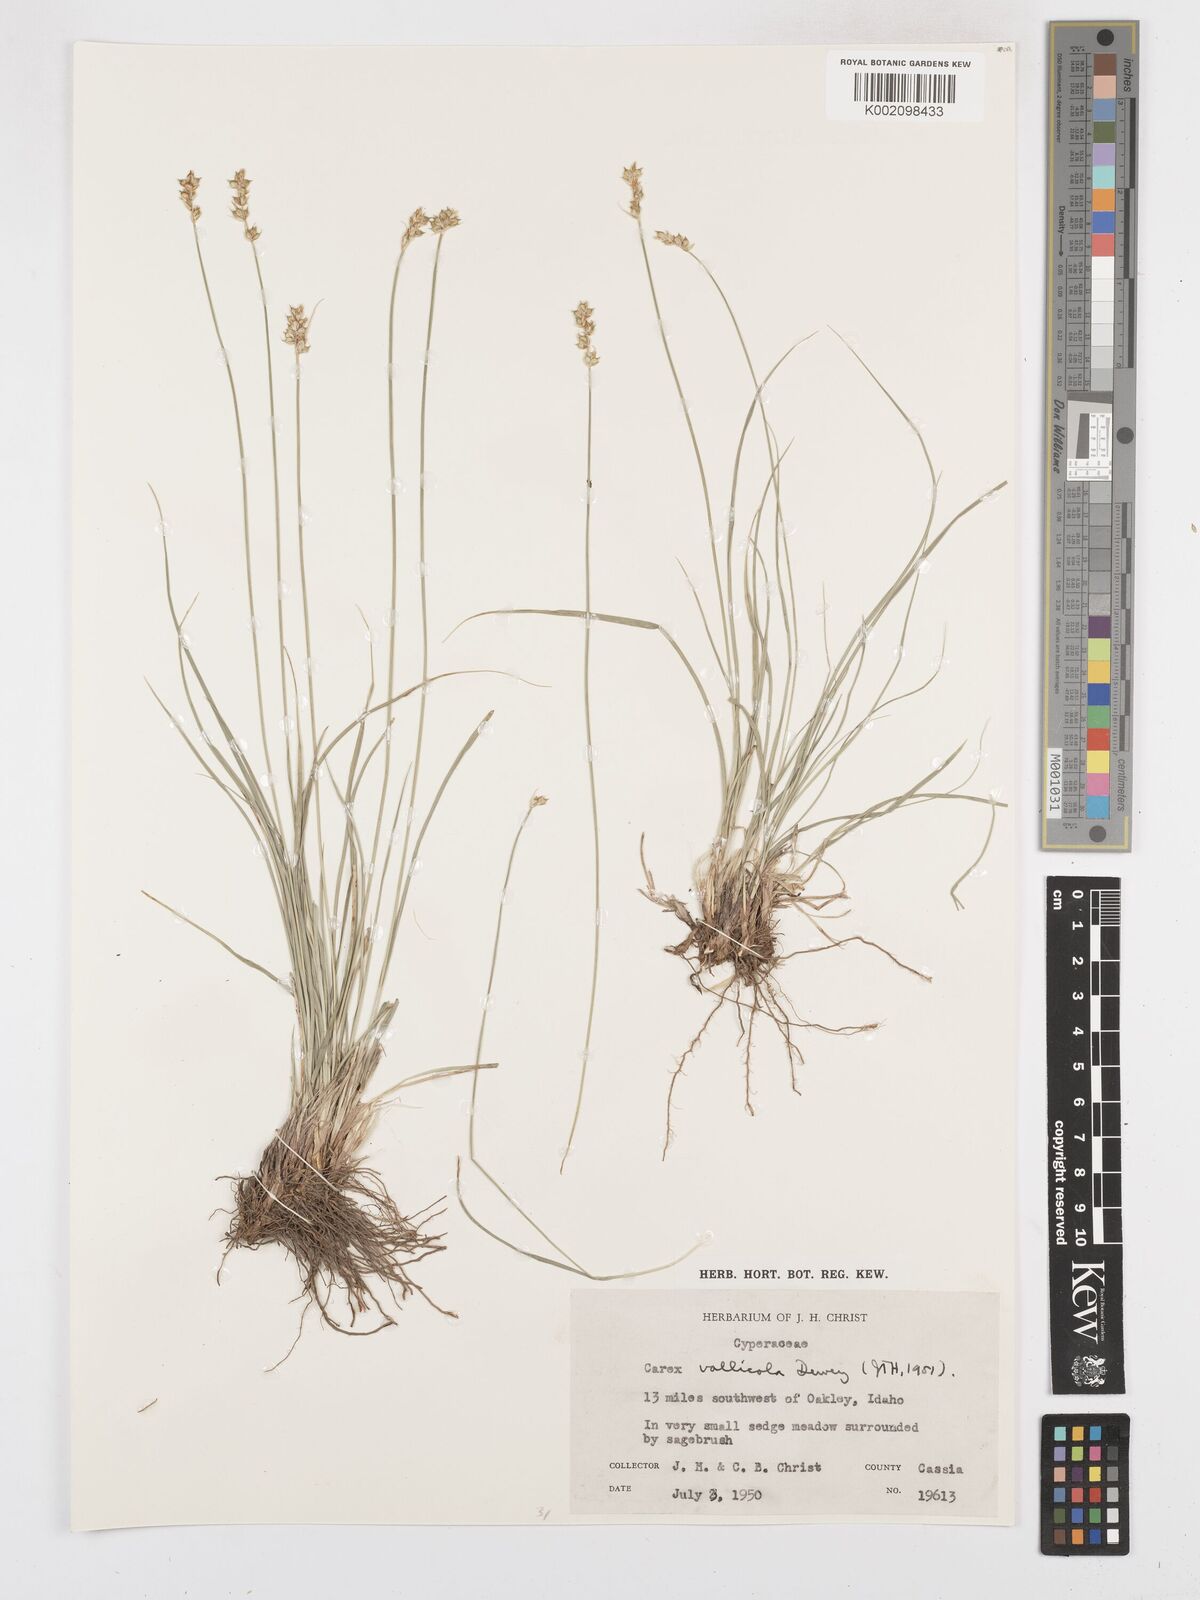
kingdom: Plantae
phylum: Tracheophyta
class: Liliopsida
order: Poales
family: Cyperaceae
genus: Carex
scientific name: Carex vallicola
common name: Valley sedge
